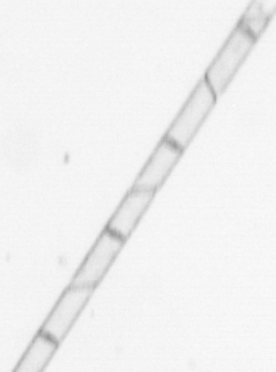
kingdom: Chromista
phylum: Ochrophyta
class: Bacillariophyceae
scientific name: Bacillariophyceae
